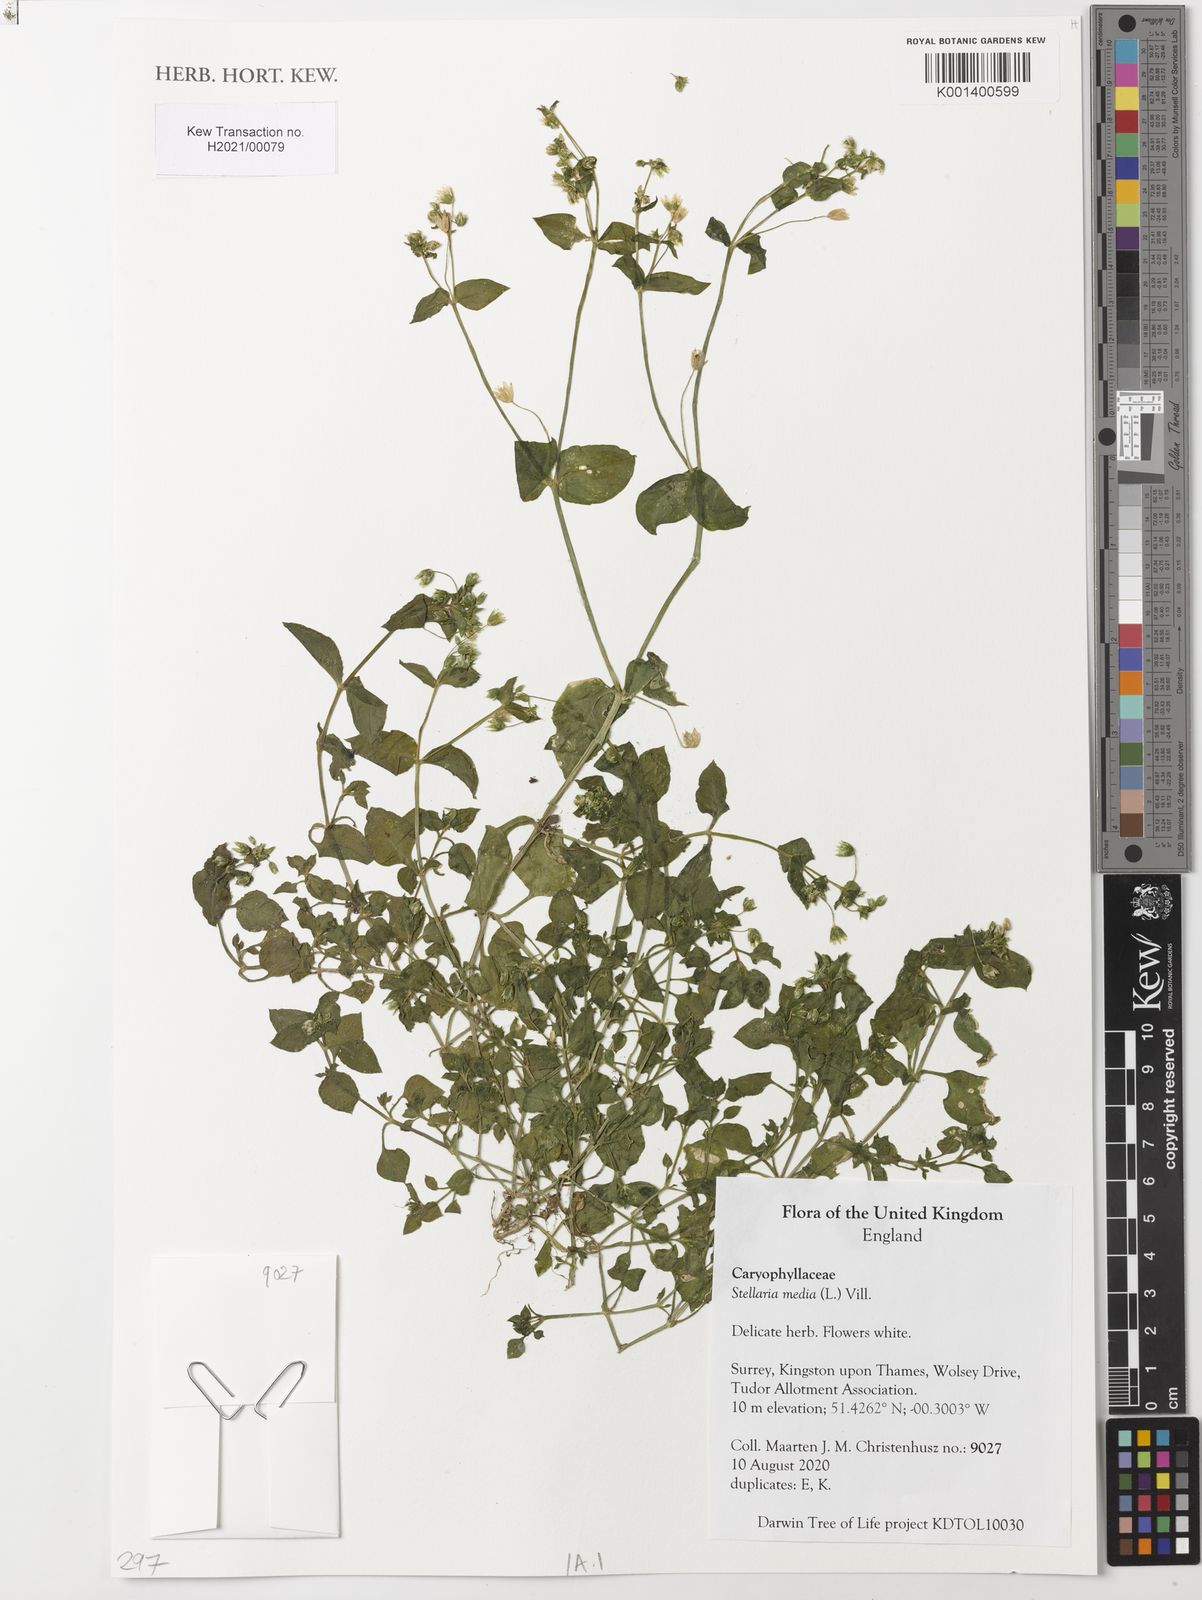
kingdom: Plantae
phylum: Tracheophyta
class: Magnoliopsida
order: Caryophyllales
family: Caryophyllaceae
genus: Stellaria
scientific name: Stellaria media
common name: Common chickweed
